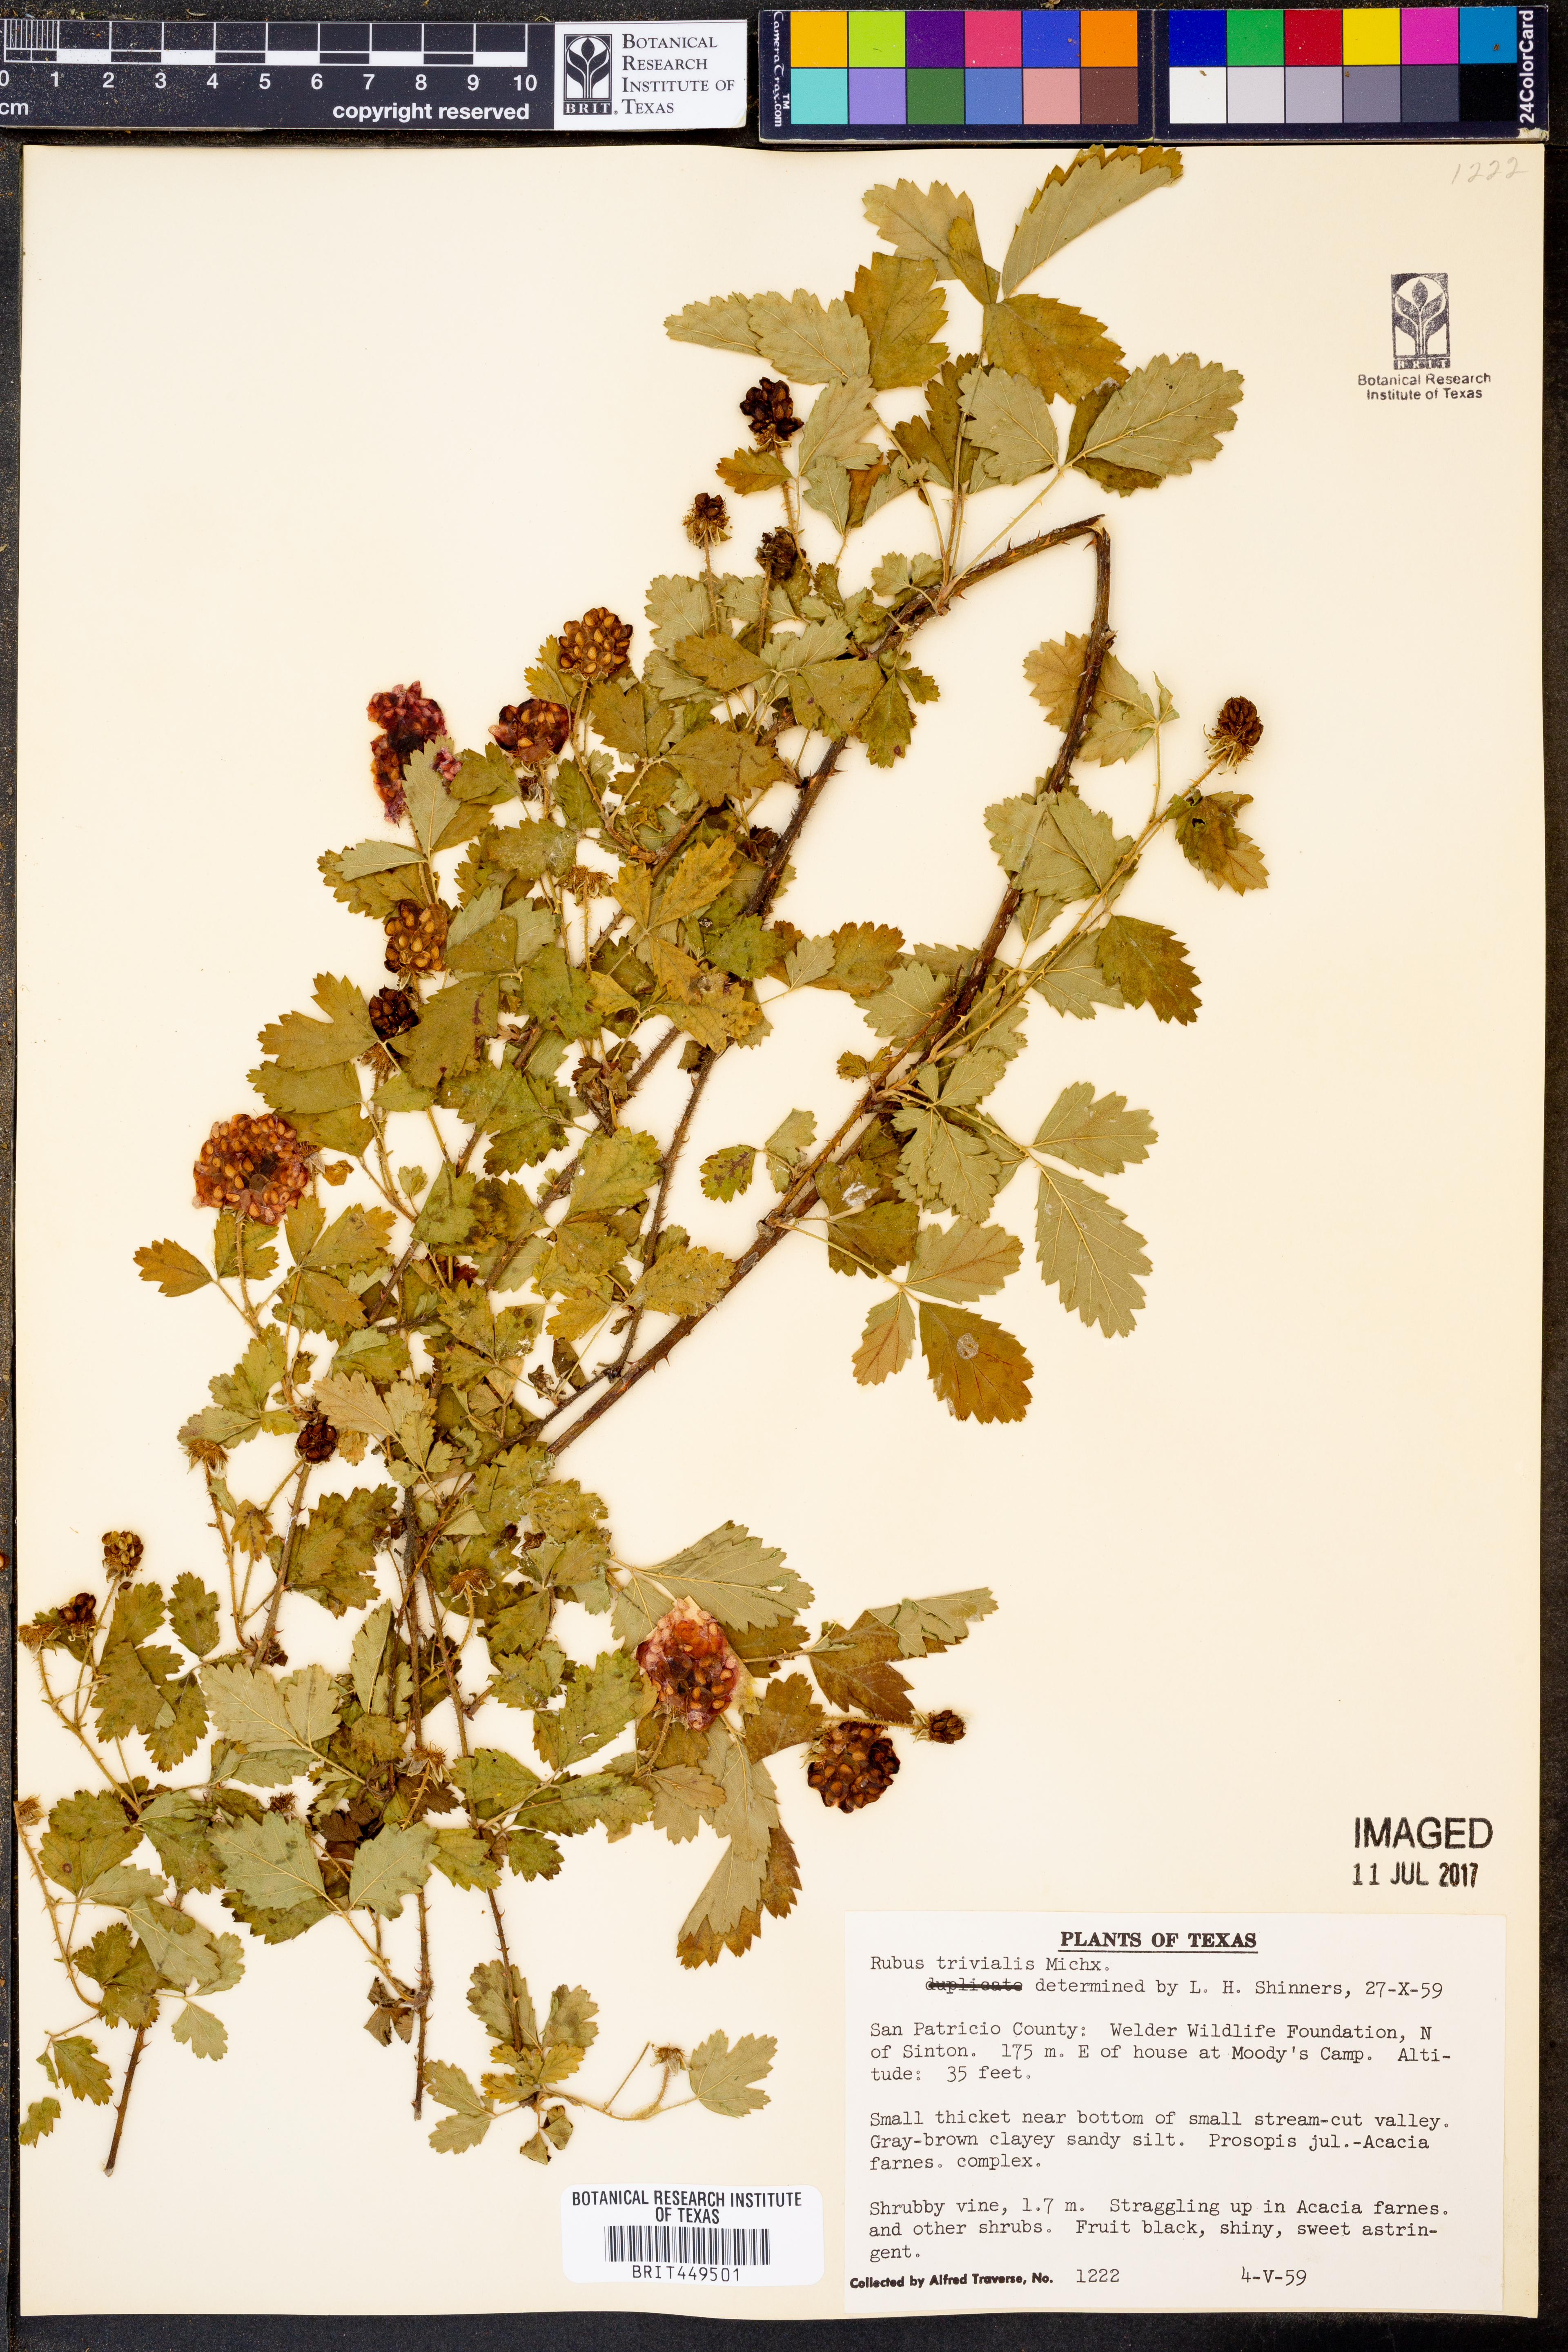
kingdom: Plantae
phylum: Tracheophyta
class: Magnoliopsida
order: Rosales
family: Rosaceae
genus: Rubus
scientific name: Rubus trivialis
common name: Southern dewberry
